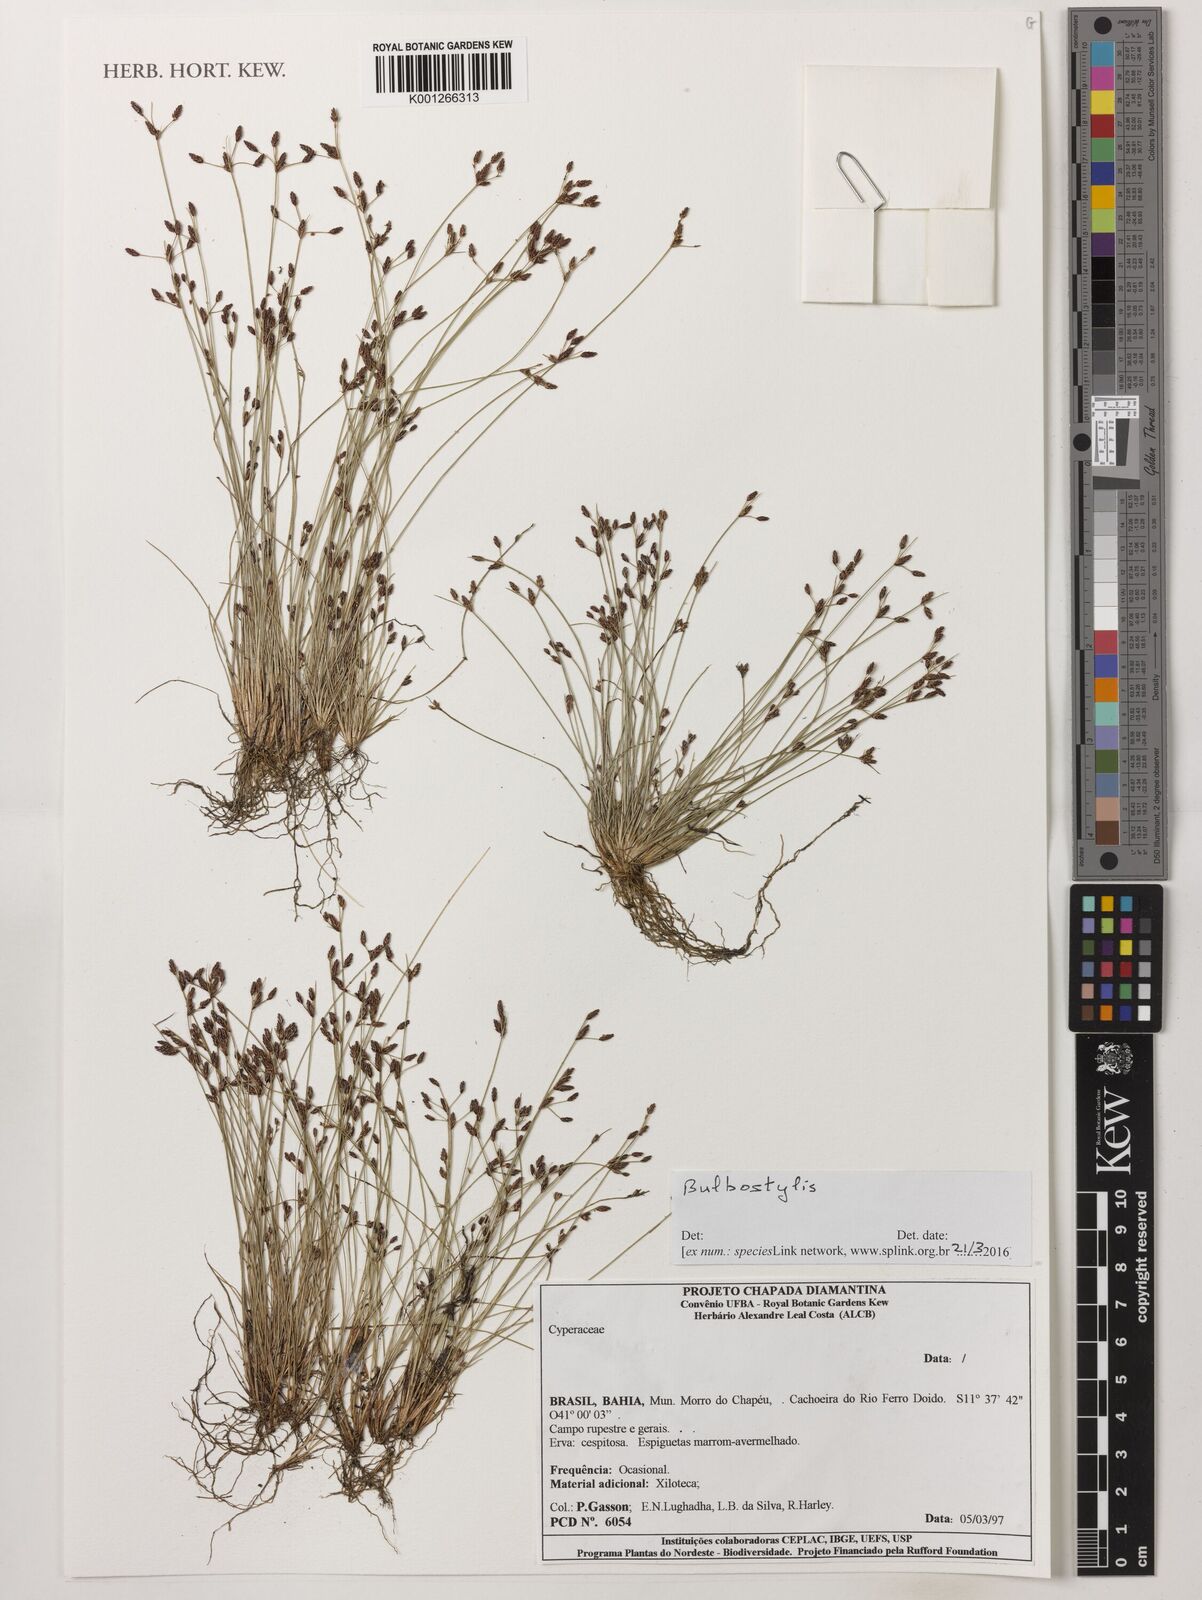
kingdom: Plantae
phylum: Tracheophyta
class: Liliopsida
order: Poales
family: Cyperaceae
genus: Bulbostylis
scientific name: Bulbostylis
